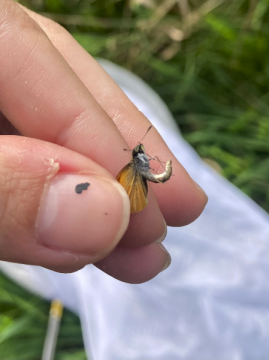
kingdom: Animalia
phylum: Arthropoda
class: Insecta
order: Lepidoptera
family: Hesperiidae
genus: Ancyloxypha
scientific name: Ancyloxypha numitor
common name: Least Skipper
